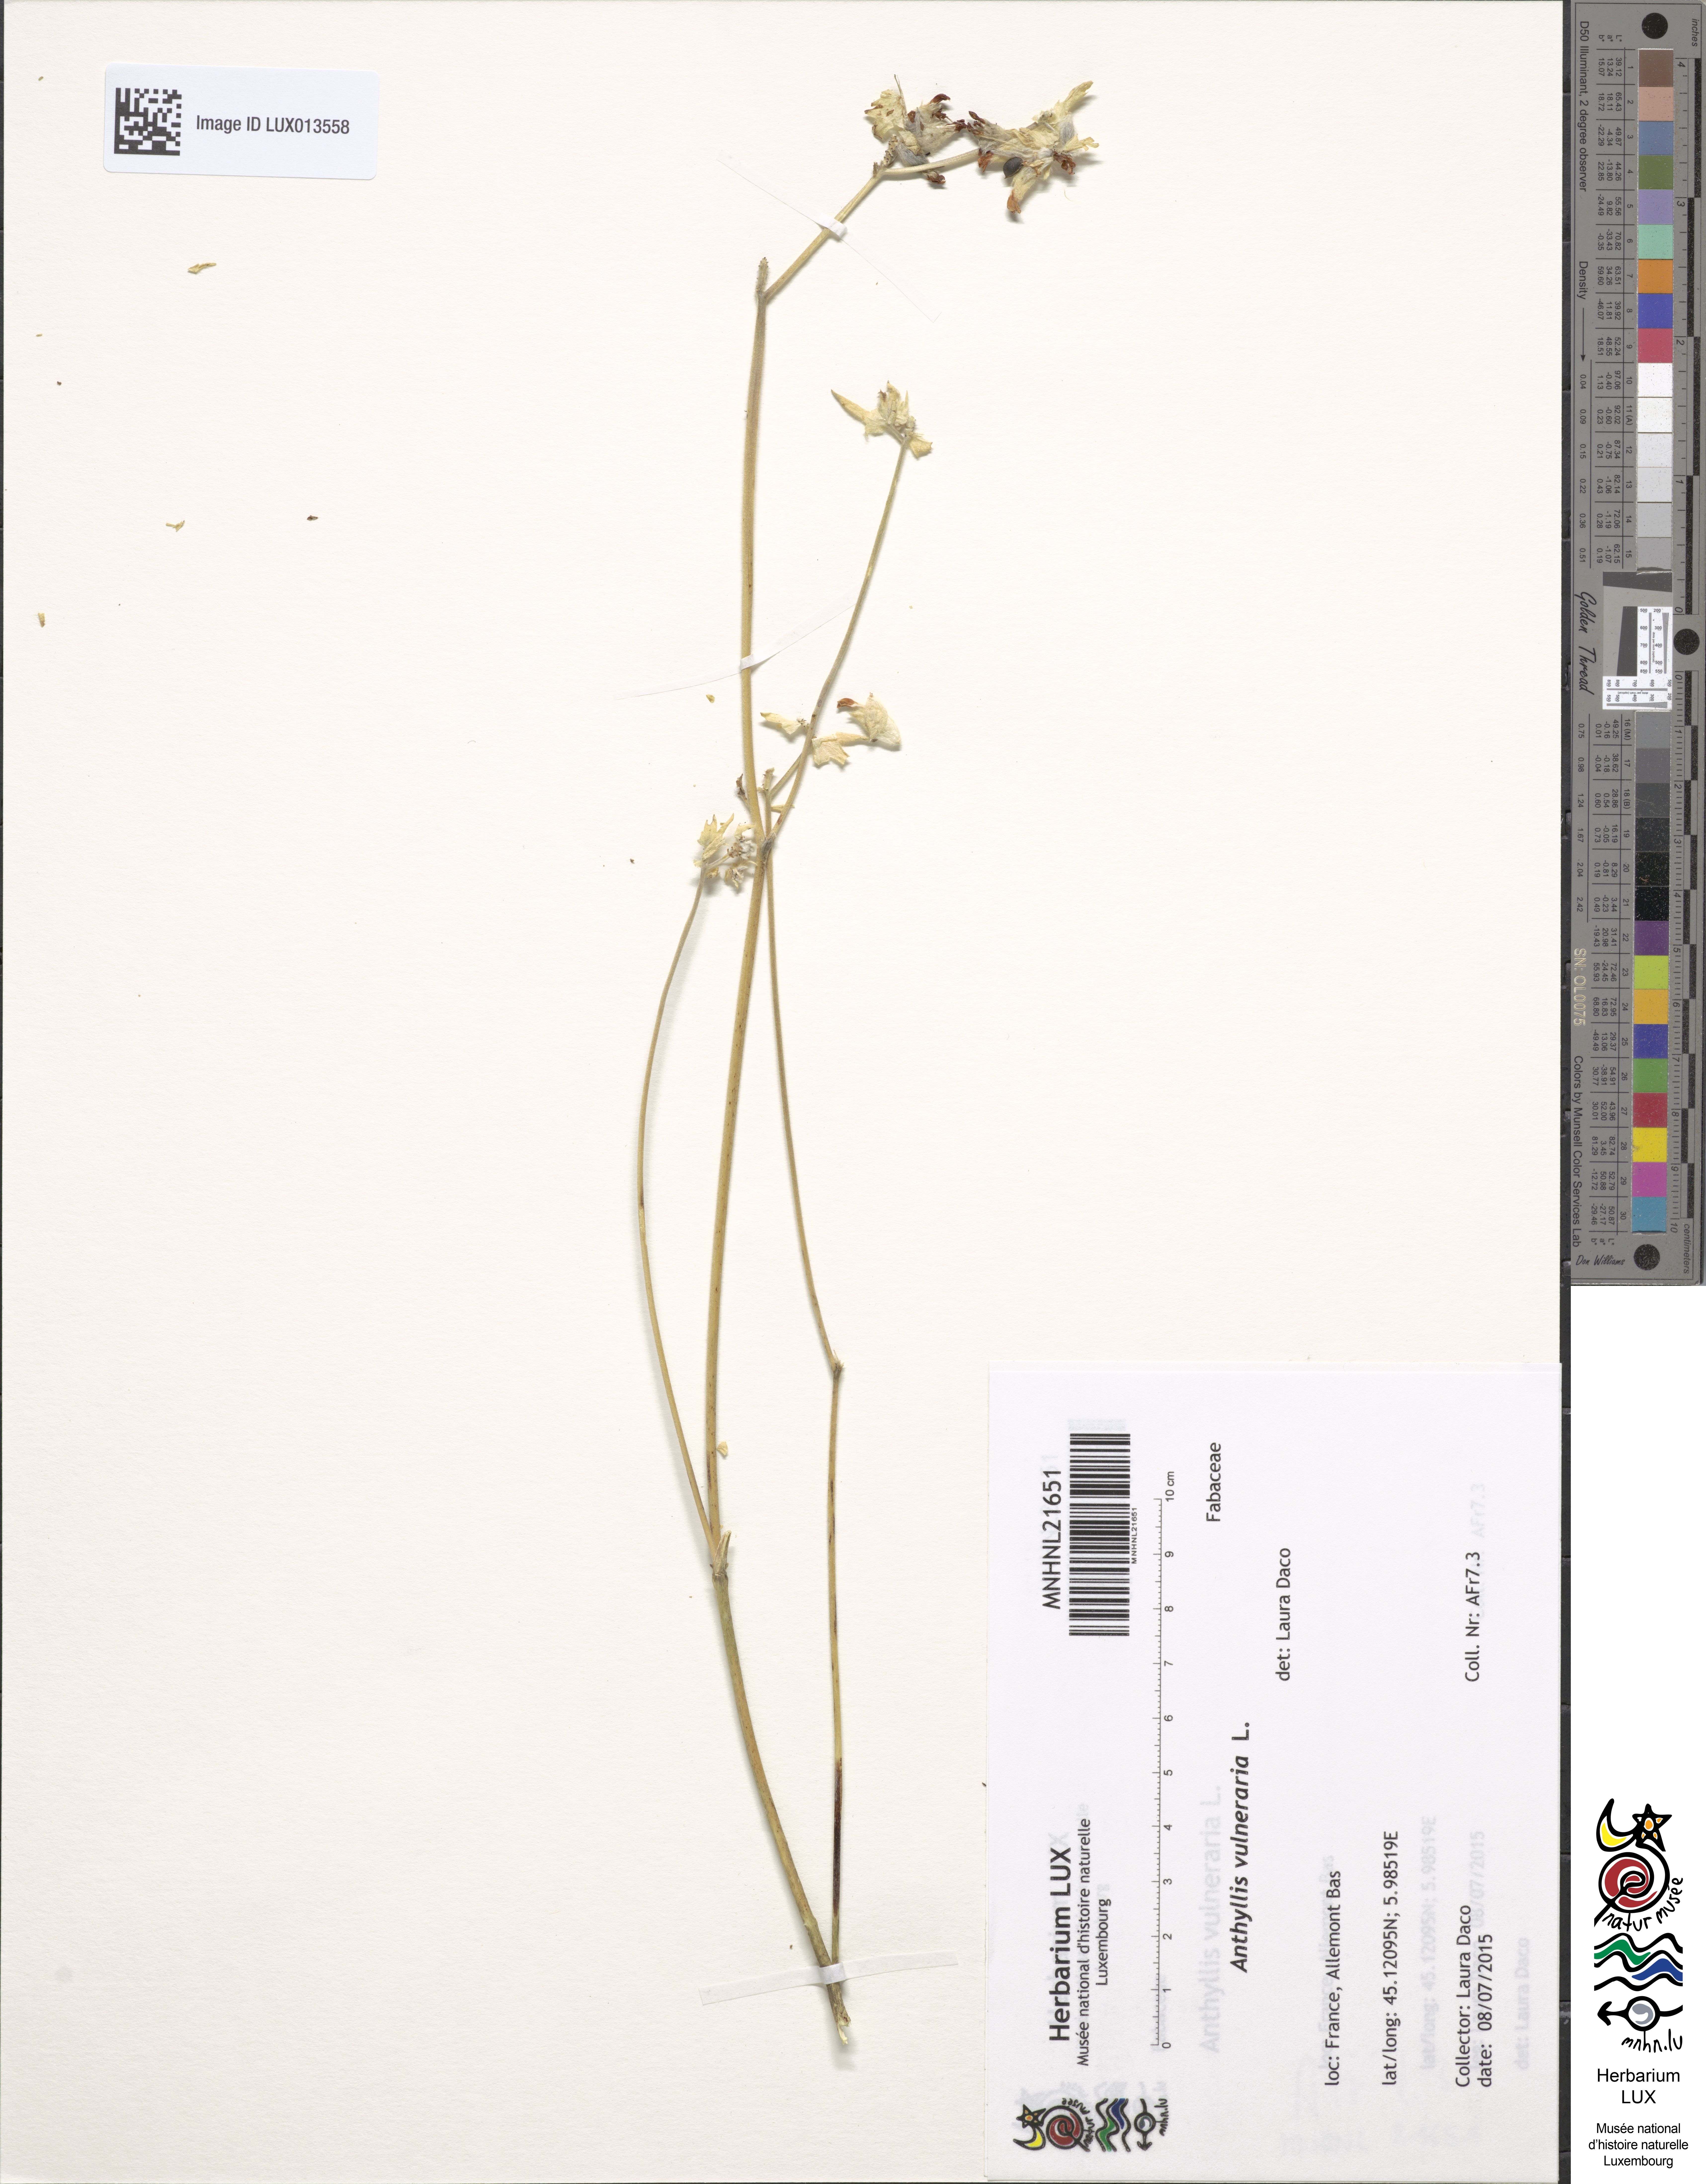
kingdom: Plantae
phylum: Tracheophyta
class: Magnoliopsida
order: Fabales
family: Fabaceae
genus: Anthyllis
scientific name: Anthyllis vulneraria
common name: Kidney vetch
